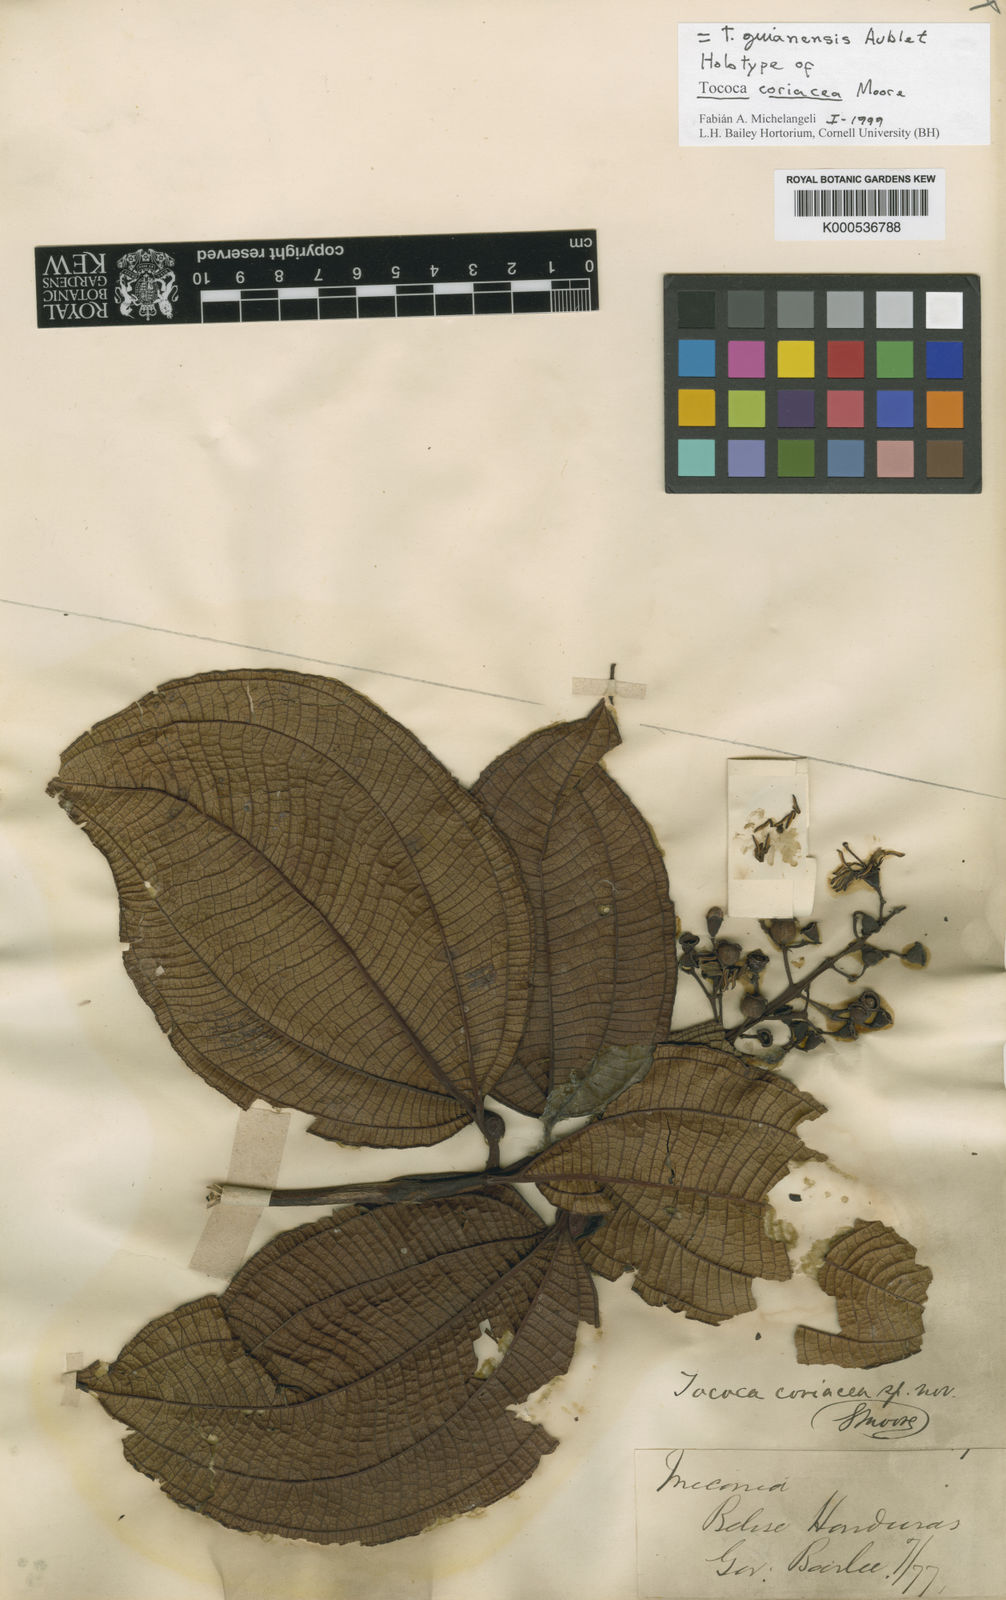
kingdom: Plantae
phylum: Tracheophyta
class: Magnoliopsida
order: Myrtales
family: Melastomataceae
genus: Miconia
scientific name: Miconia tococa
